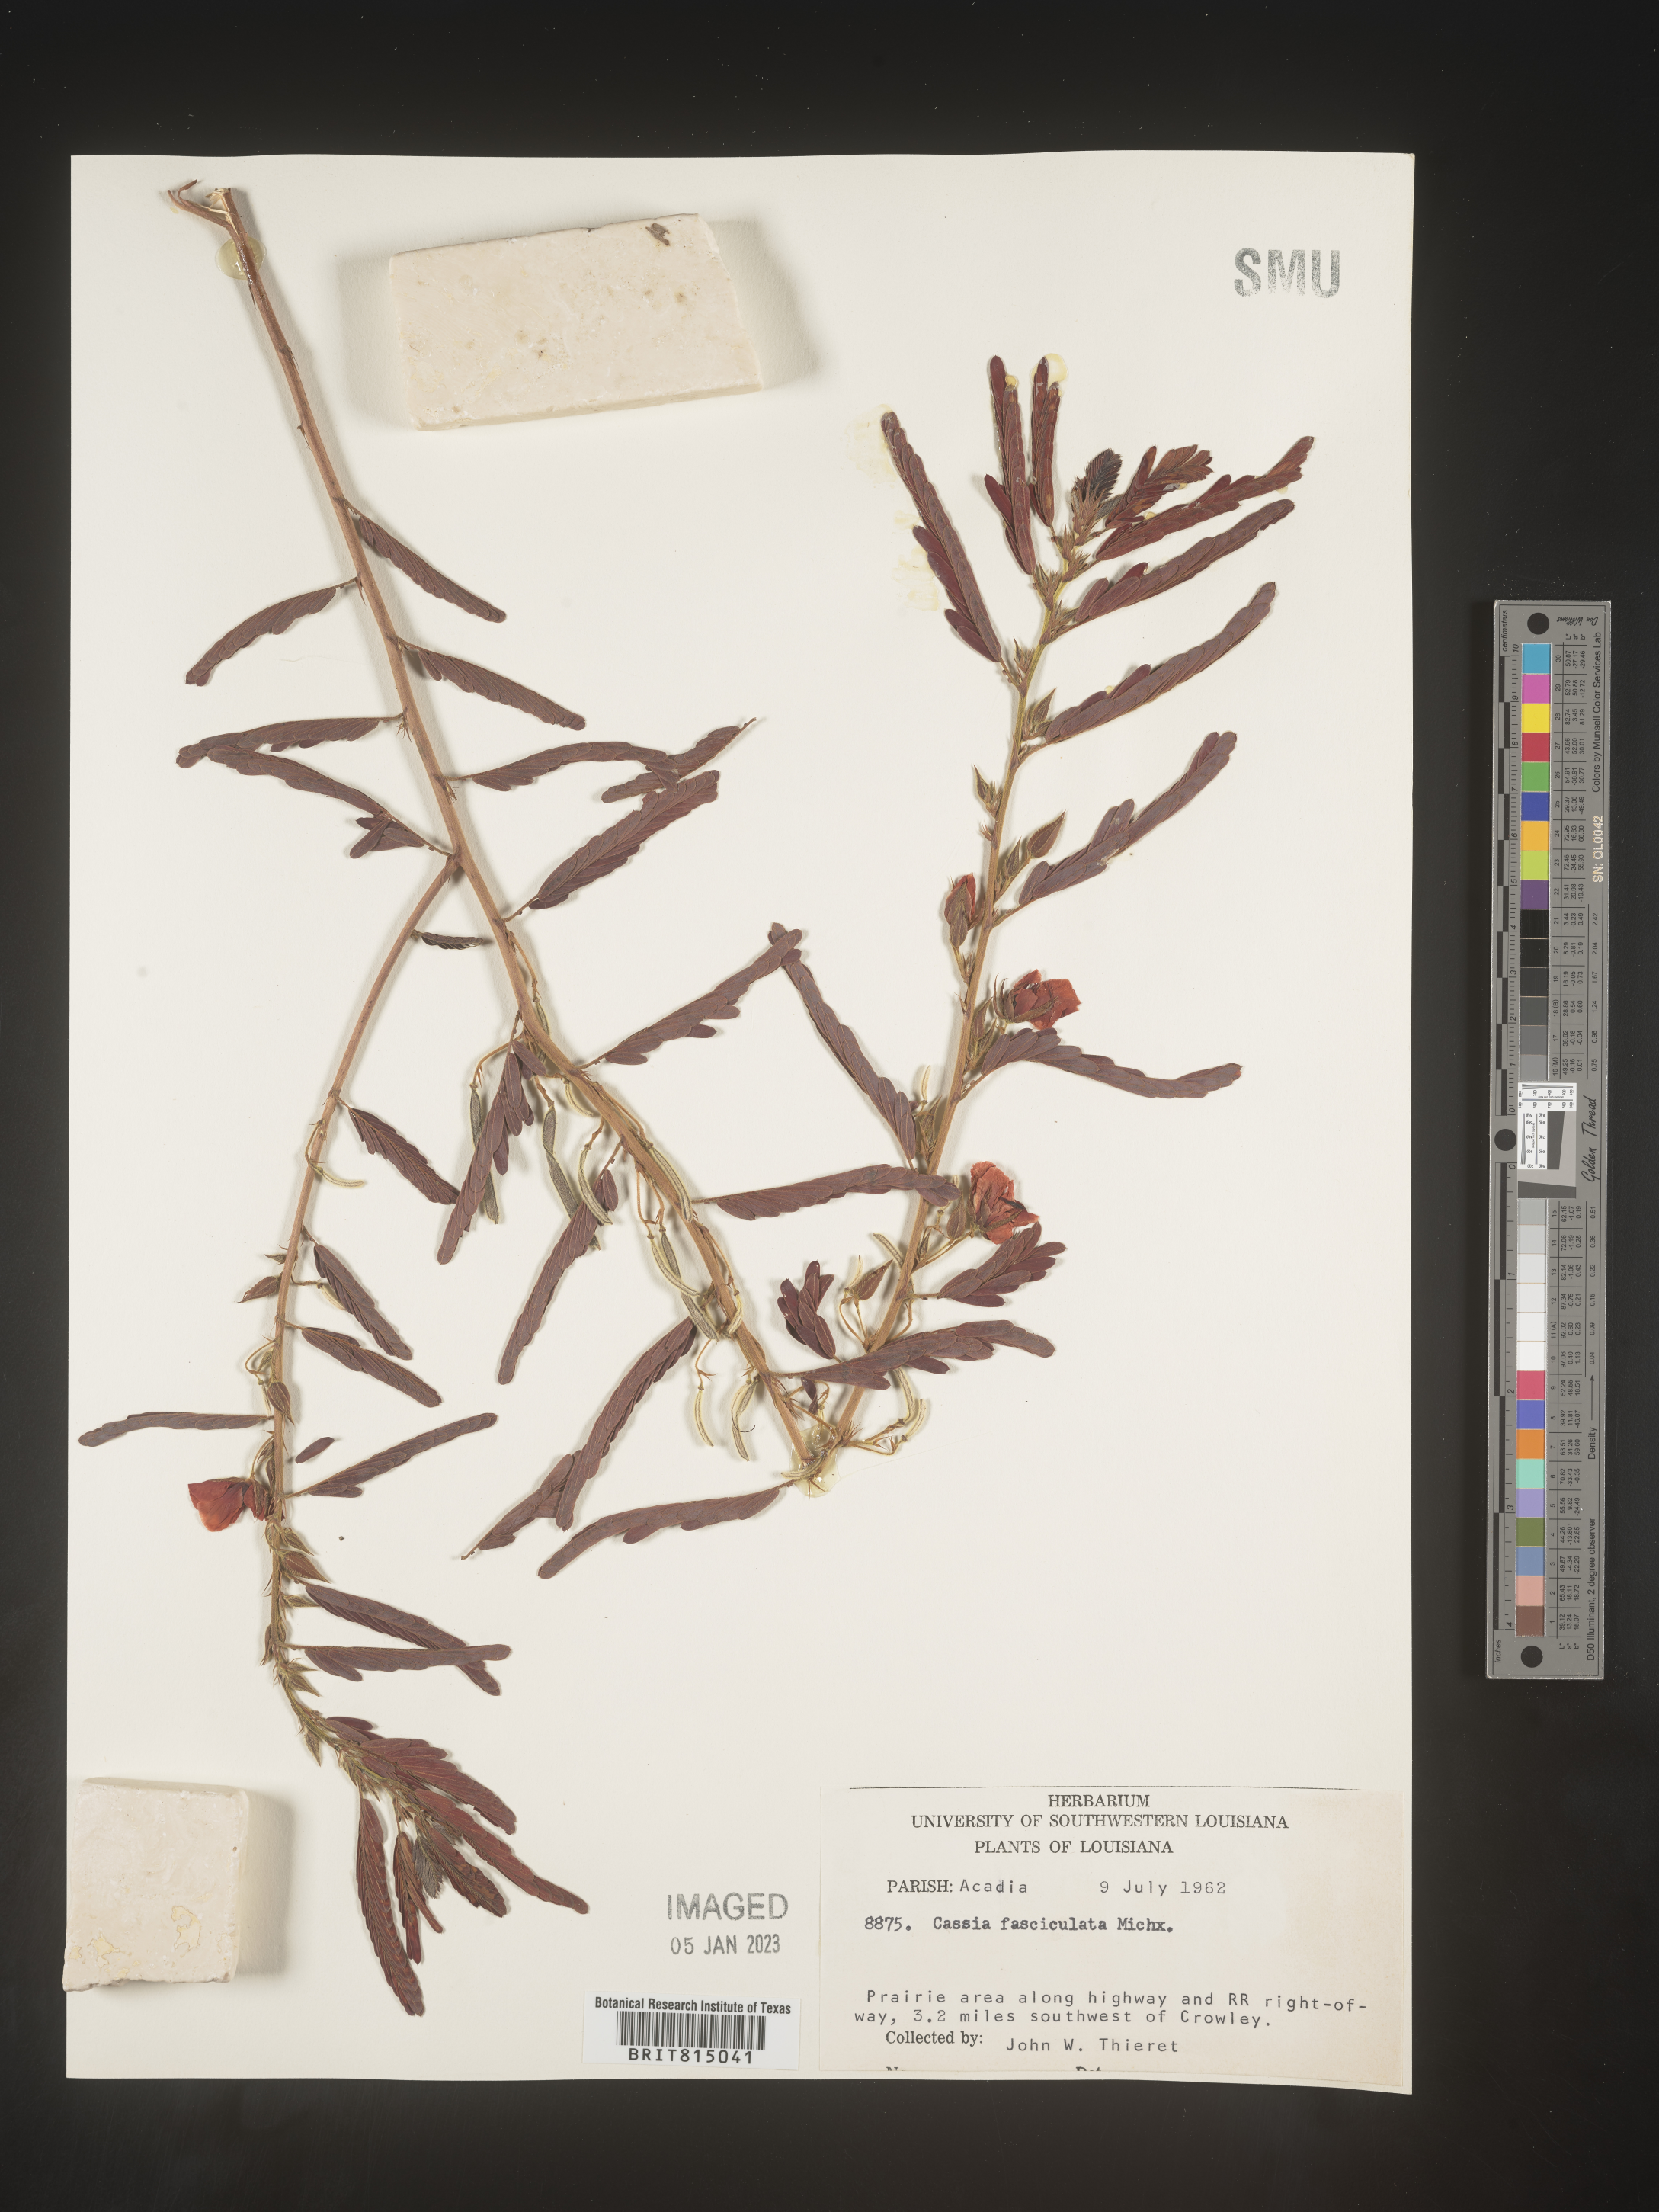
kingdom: Plantae
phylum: Tracheophyta
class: Magnoliopsida
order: Fabales
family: Fabaceae
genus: Chamaecrista
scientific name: Chamaecrista fasciculata
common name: Golden cassia
